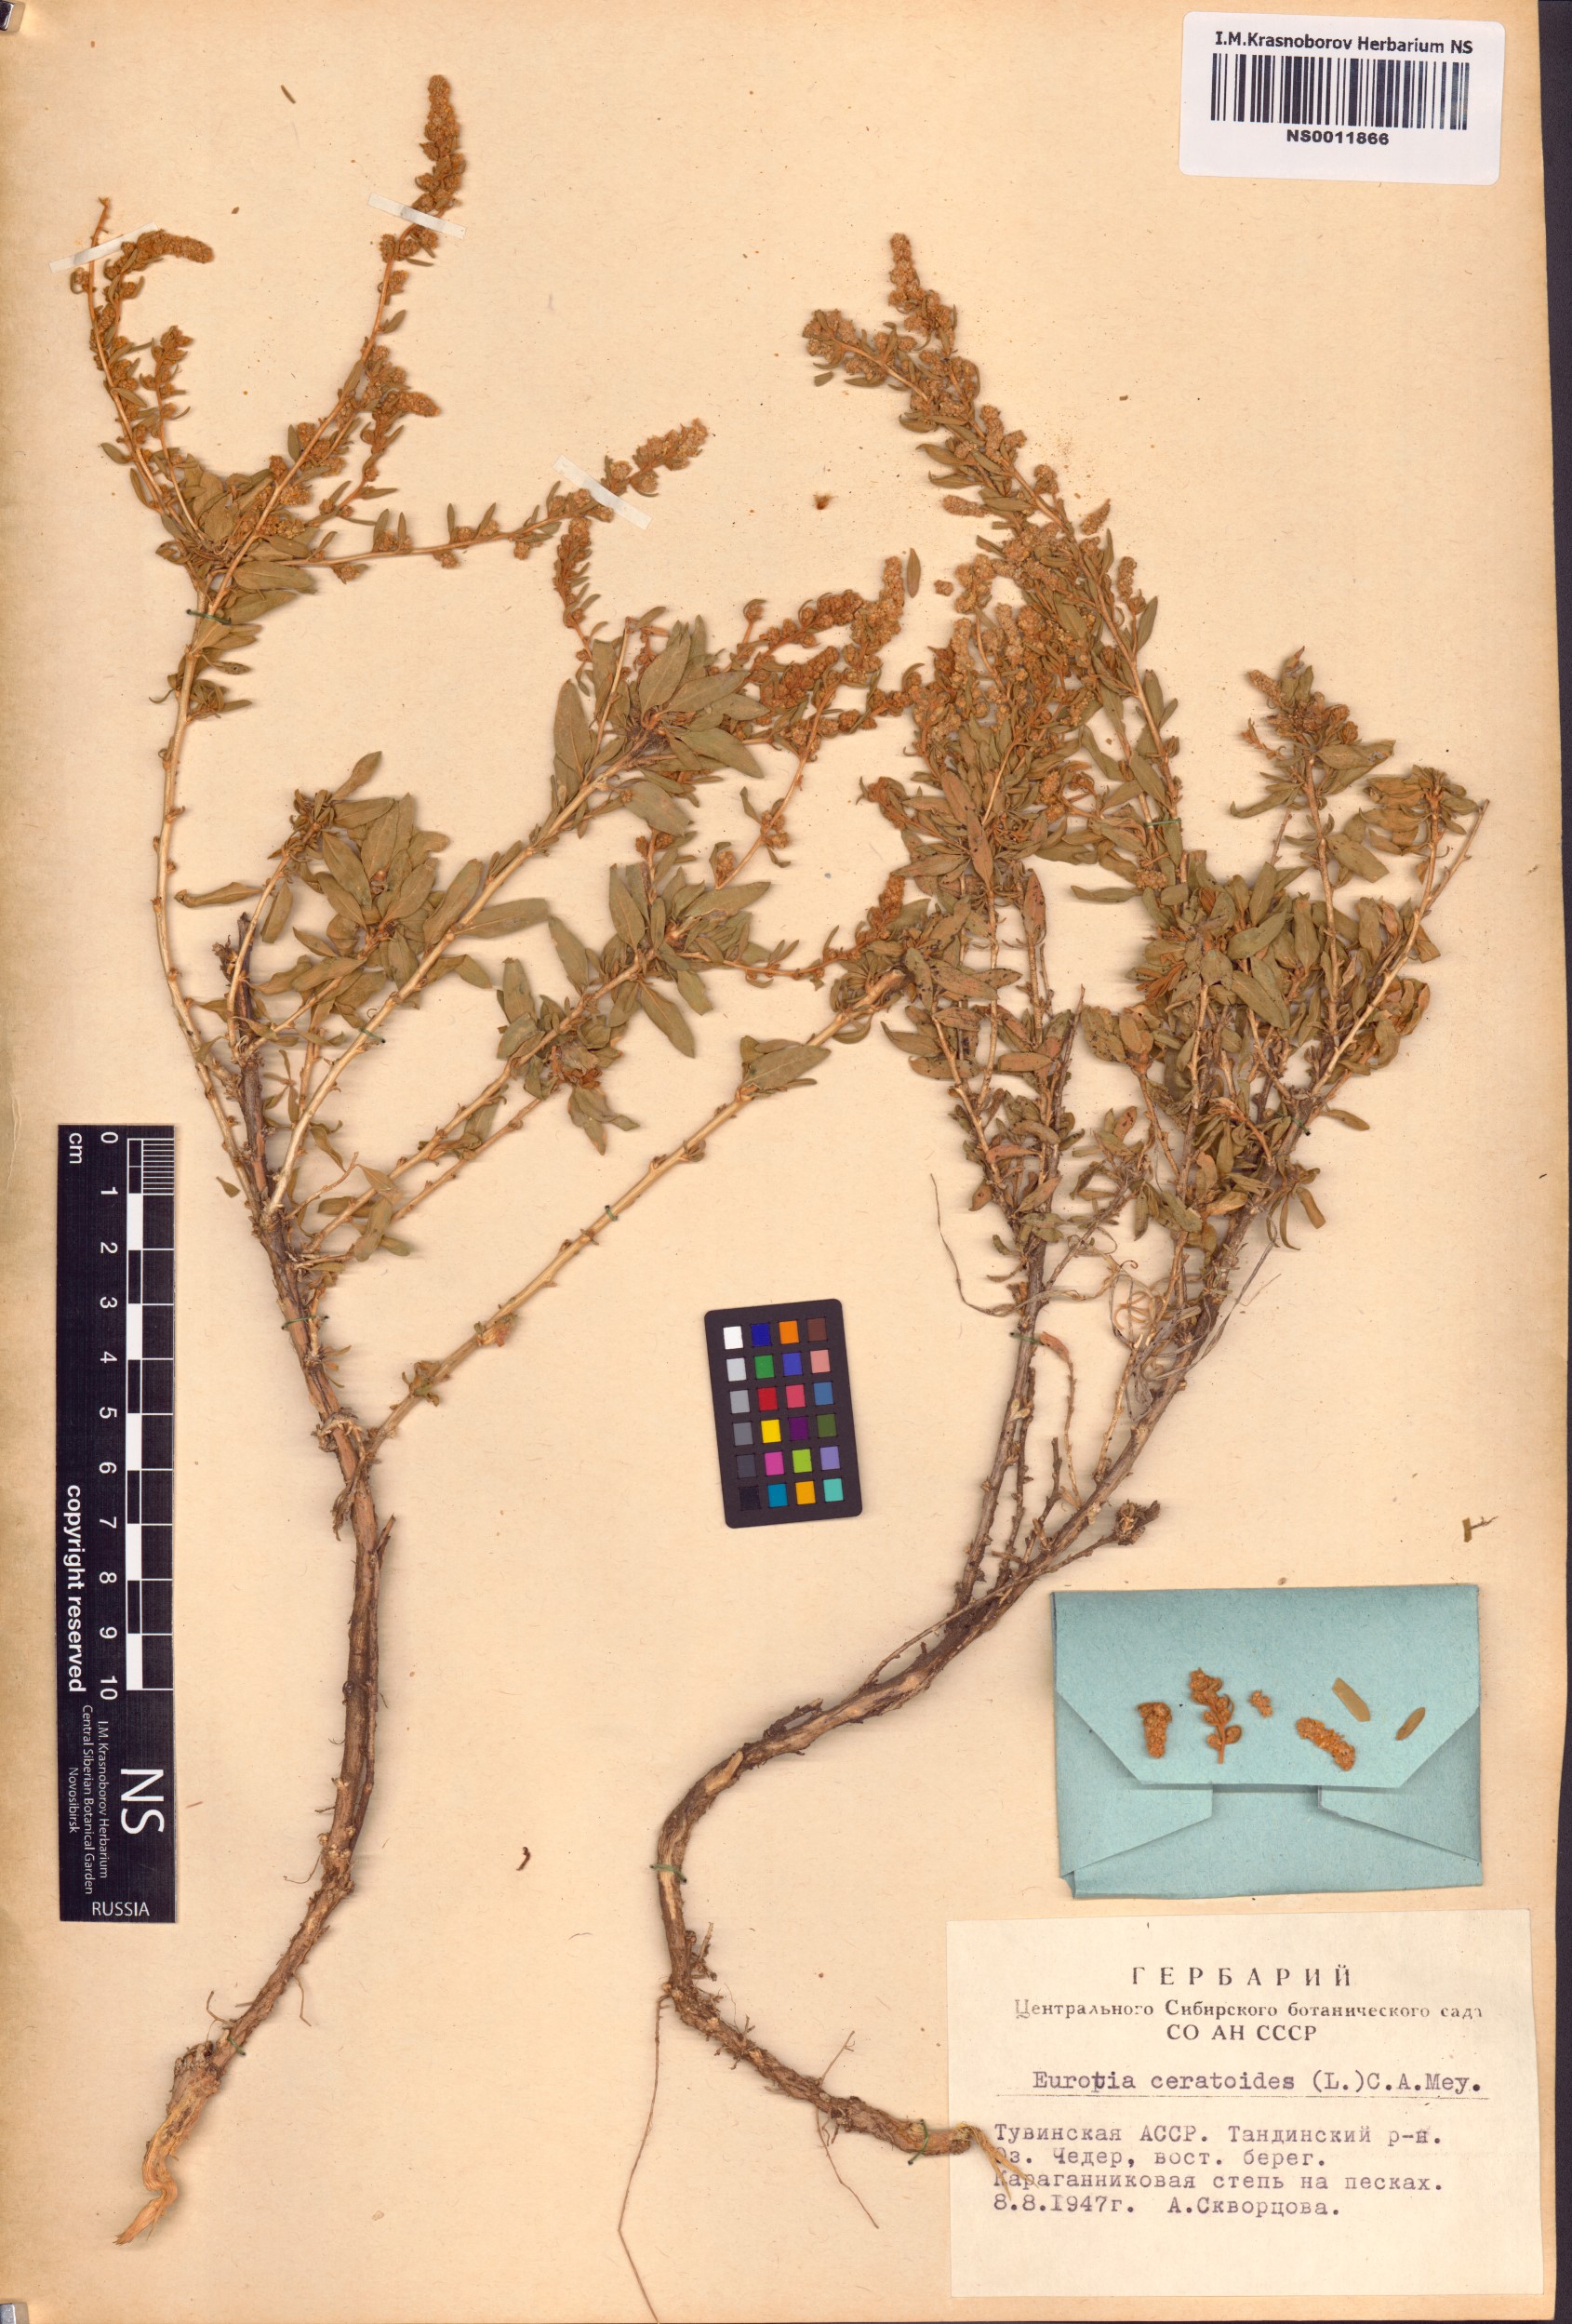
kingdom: Plantae
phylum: Tracheophyta
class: Magnoliopsida
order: Caryophyllales
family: Amaranthaceae
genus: Krascheninnikovia
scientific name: Krascheninnikovia ceratoides
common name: Pamirian winterfat
